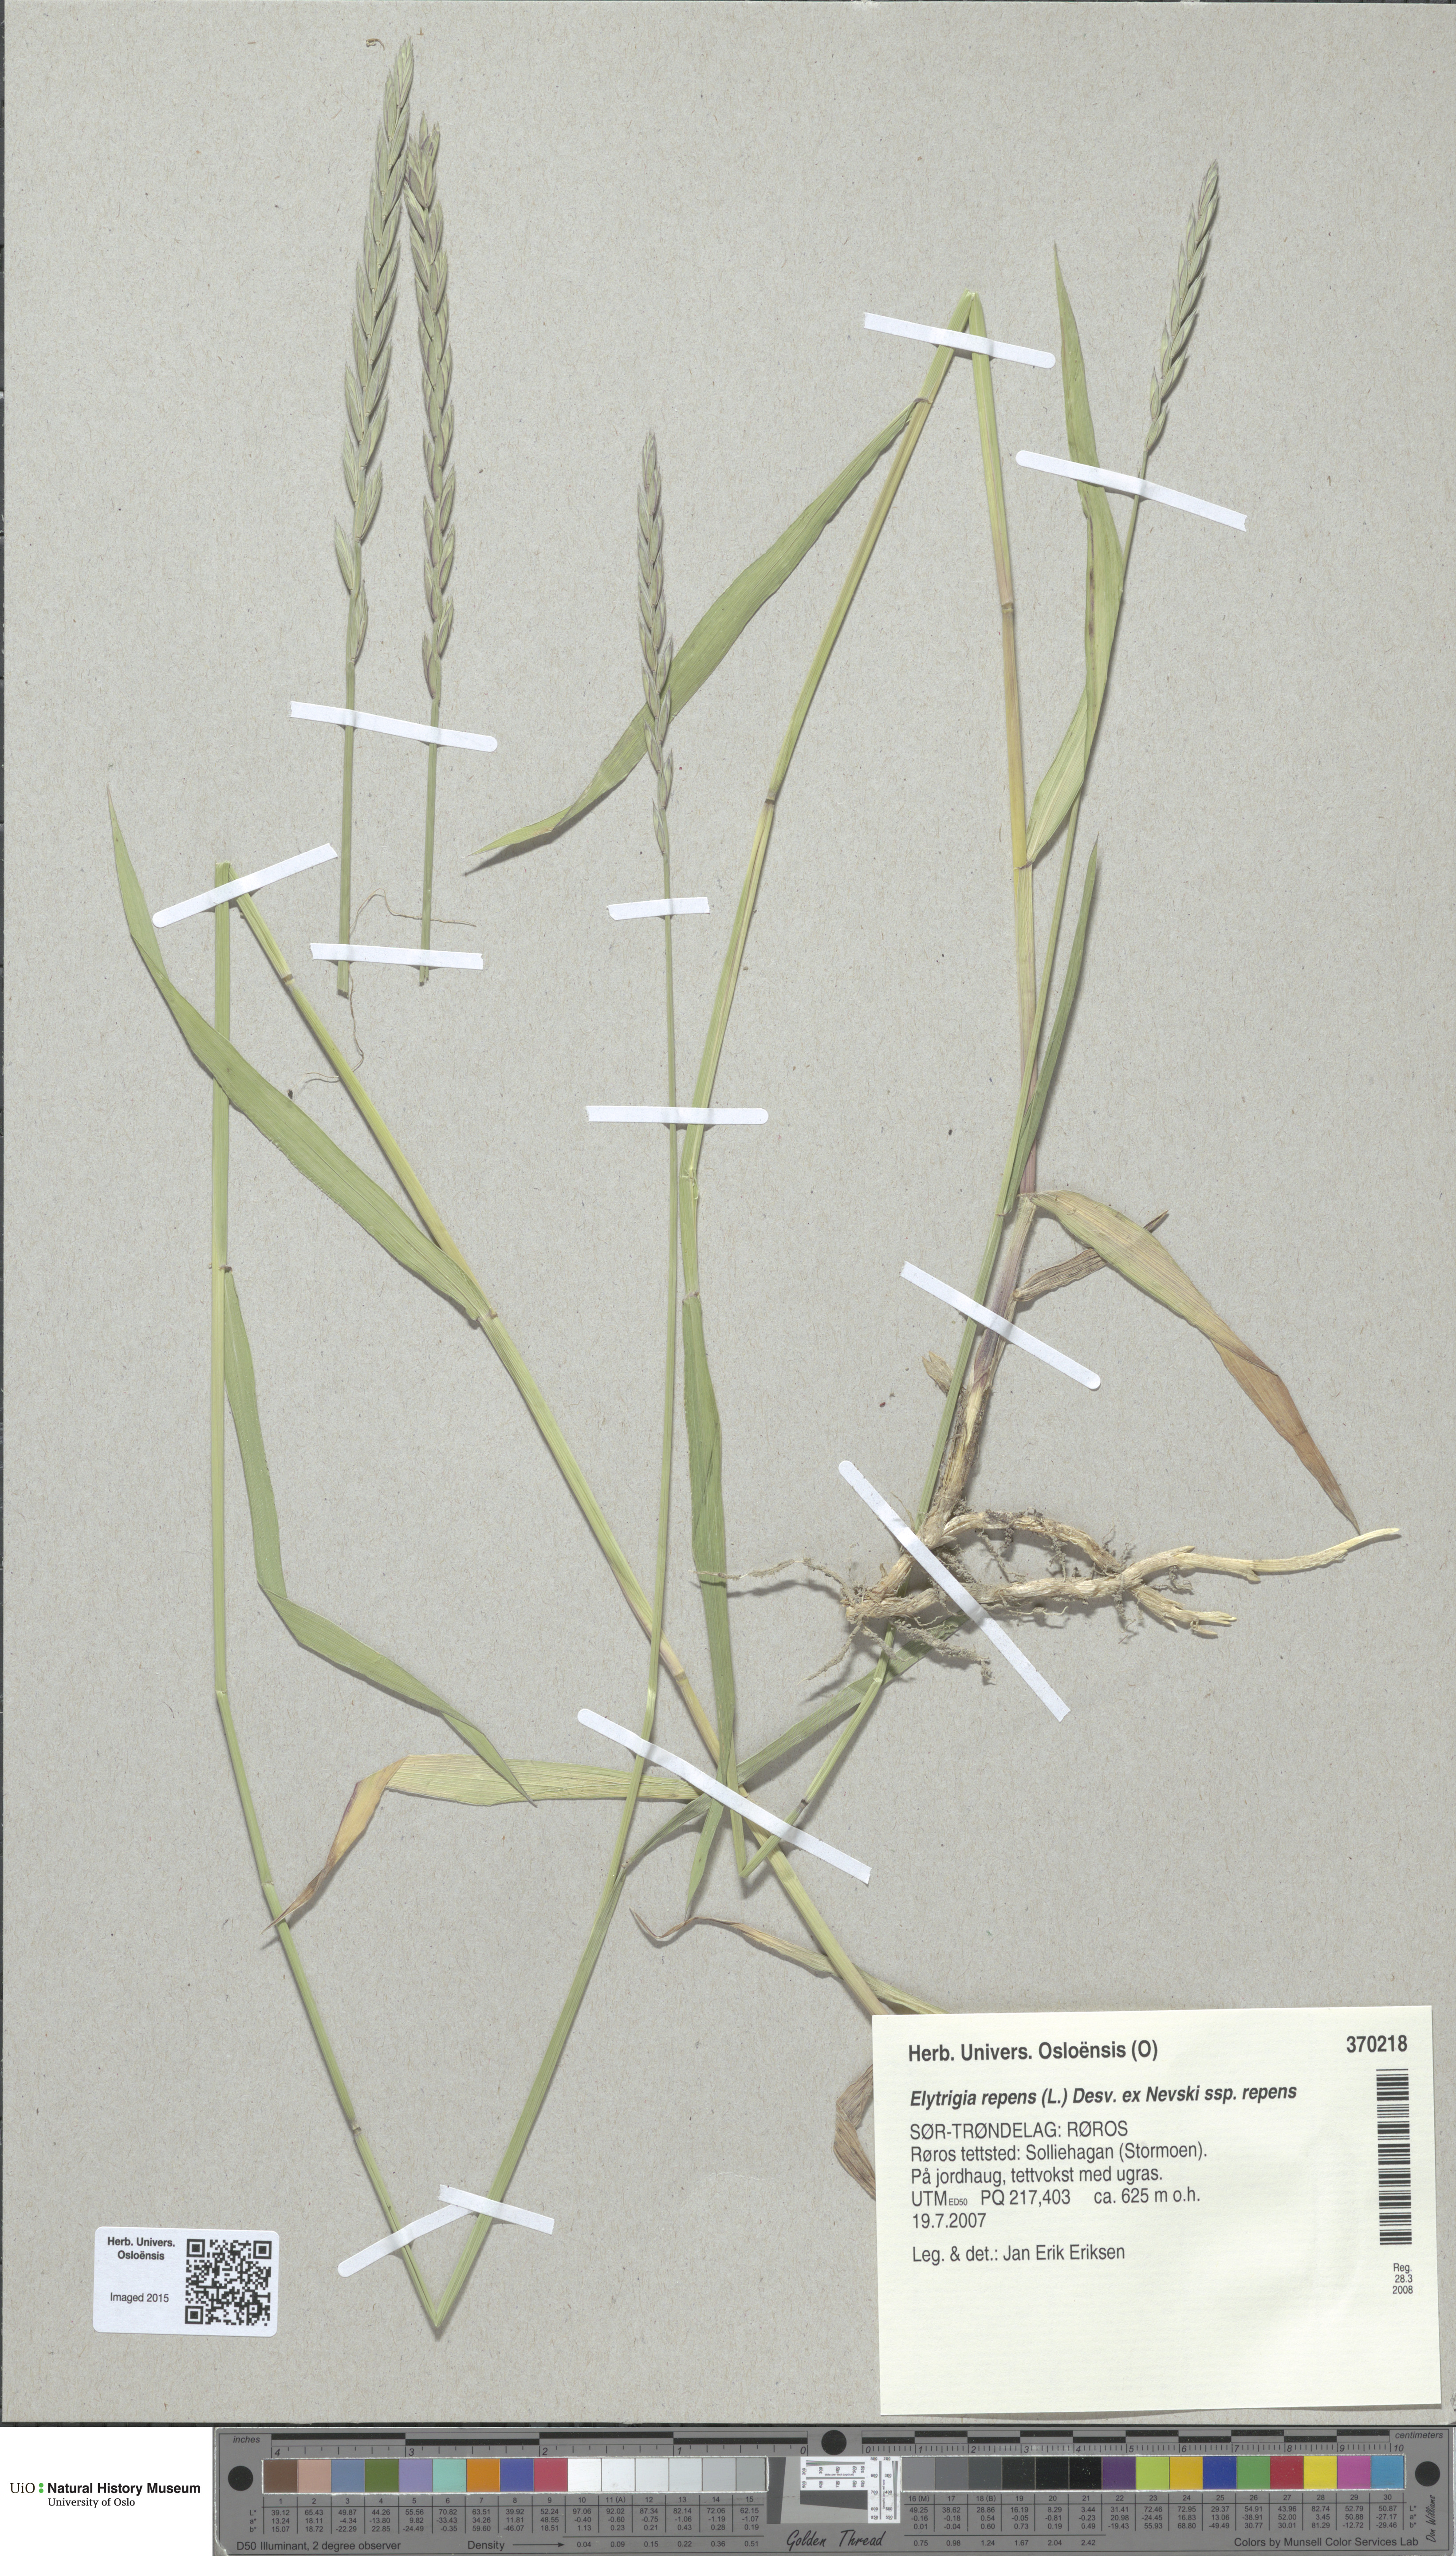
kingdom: Plantae
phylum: Tracheophyta
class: Liliopsida
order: Poales
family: Poaceae
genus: Elymus
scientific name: Elymus repens
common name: Quackgrass
